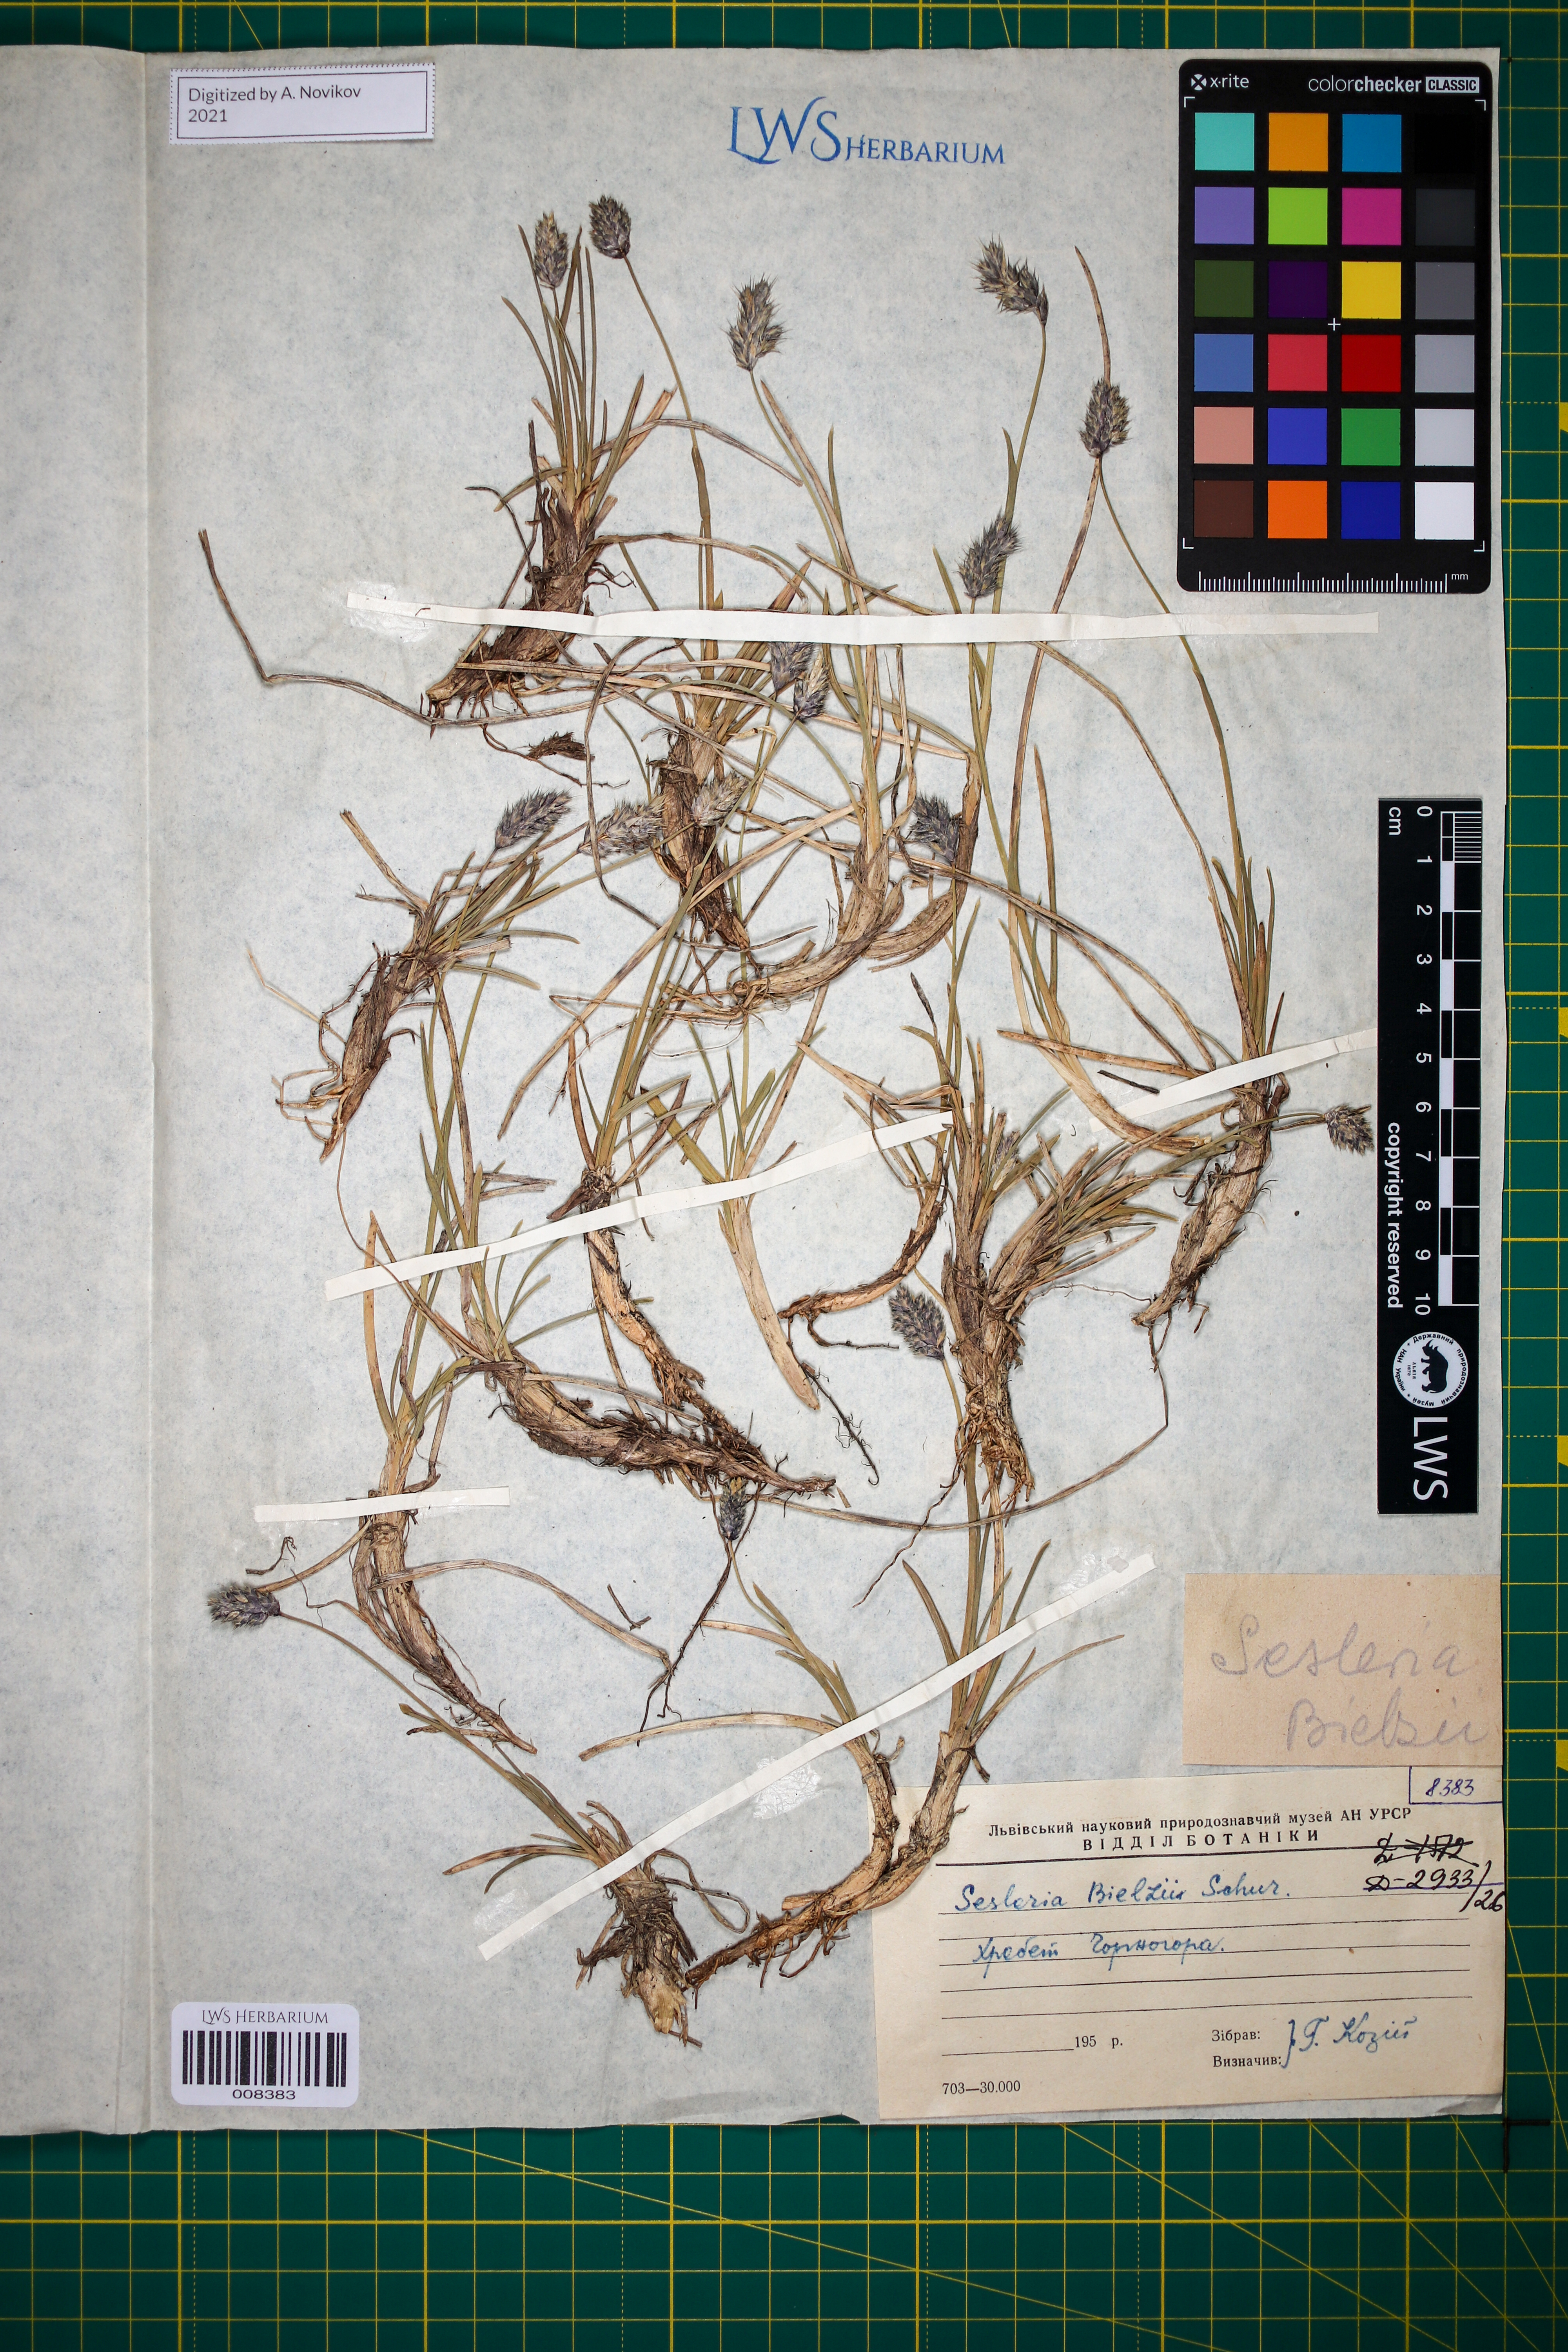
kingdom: Plantae
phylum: Tracheophyta
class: Liliopsida
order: Poales
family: Poaceae
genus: Sesleria
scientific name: Sesleria bielzii
